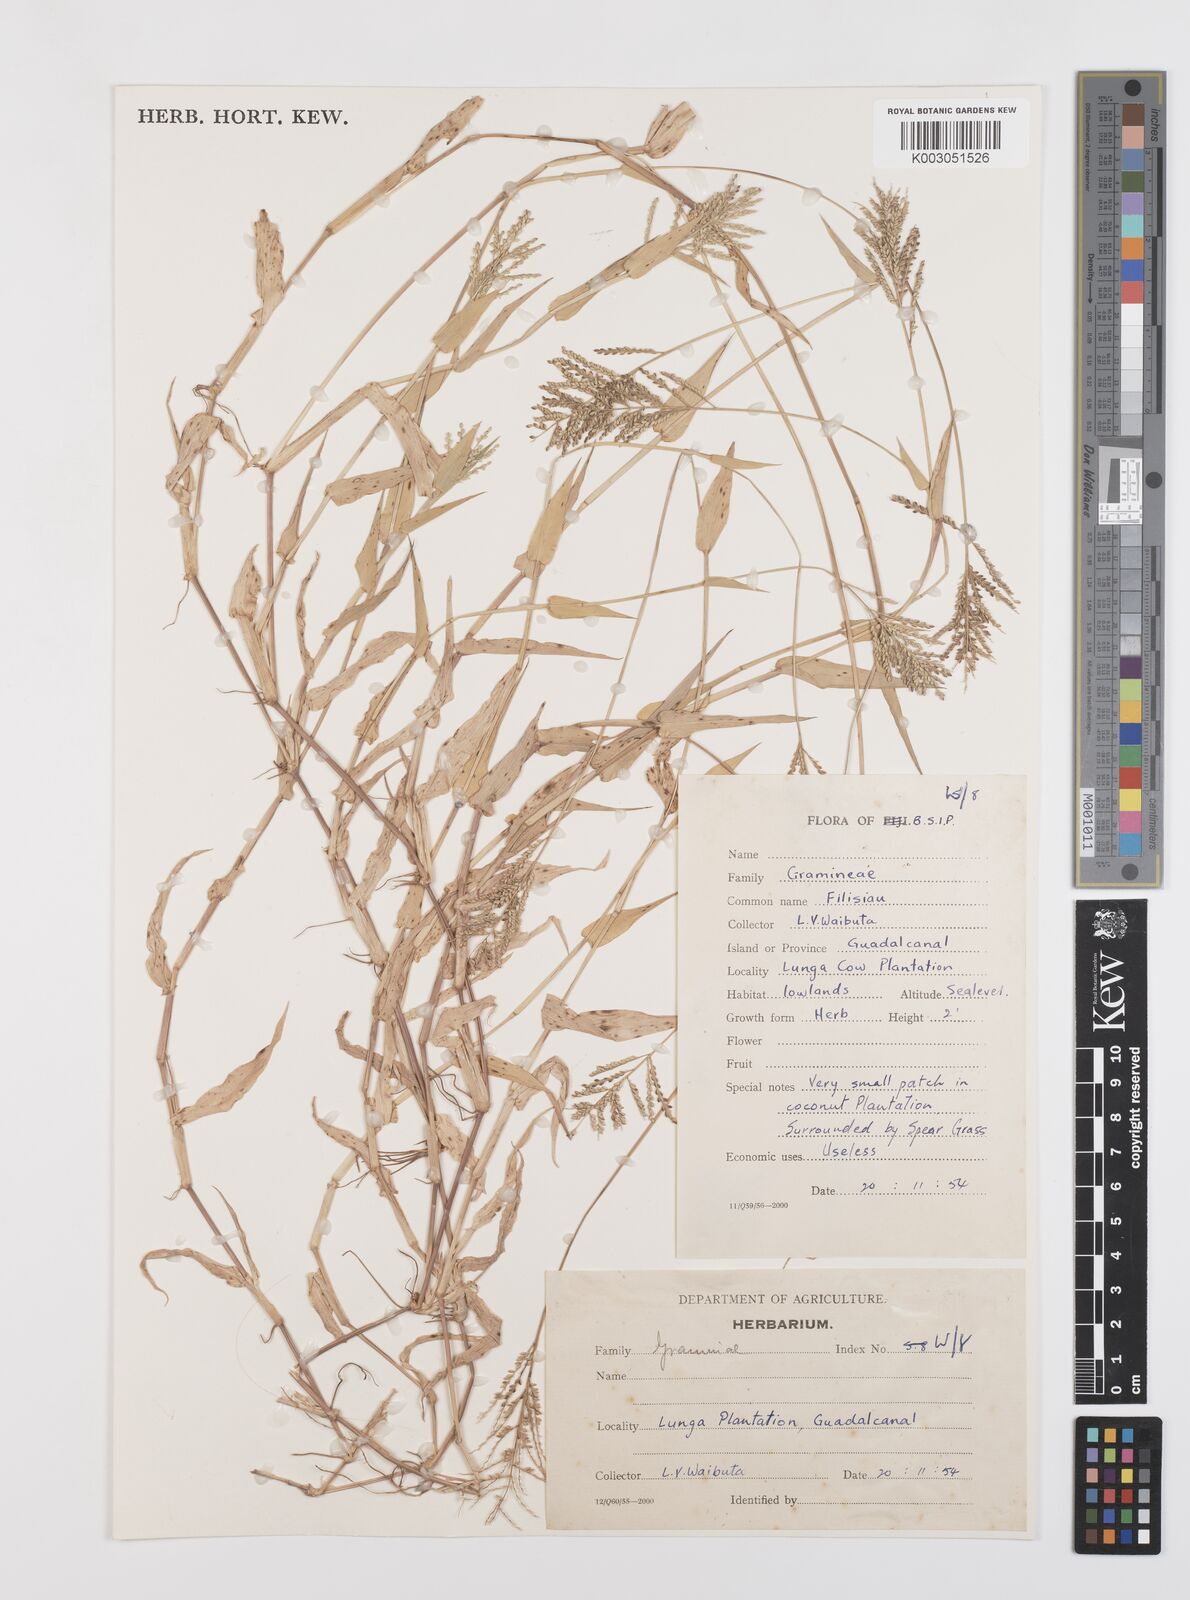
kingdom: Plantae
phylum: Tracheophyta
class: Liliopsida
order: Poales
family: Poaceae
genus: Urochloa
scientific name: Urochloa reptans
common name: Sprawling signalgrass
